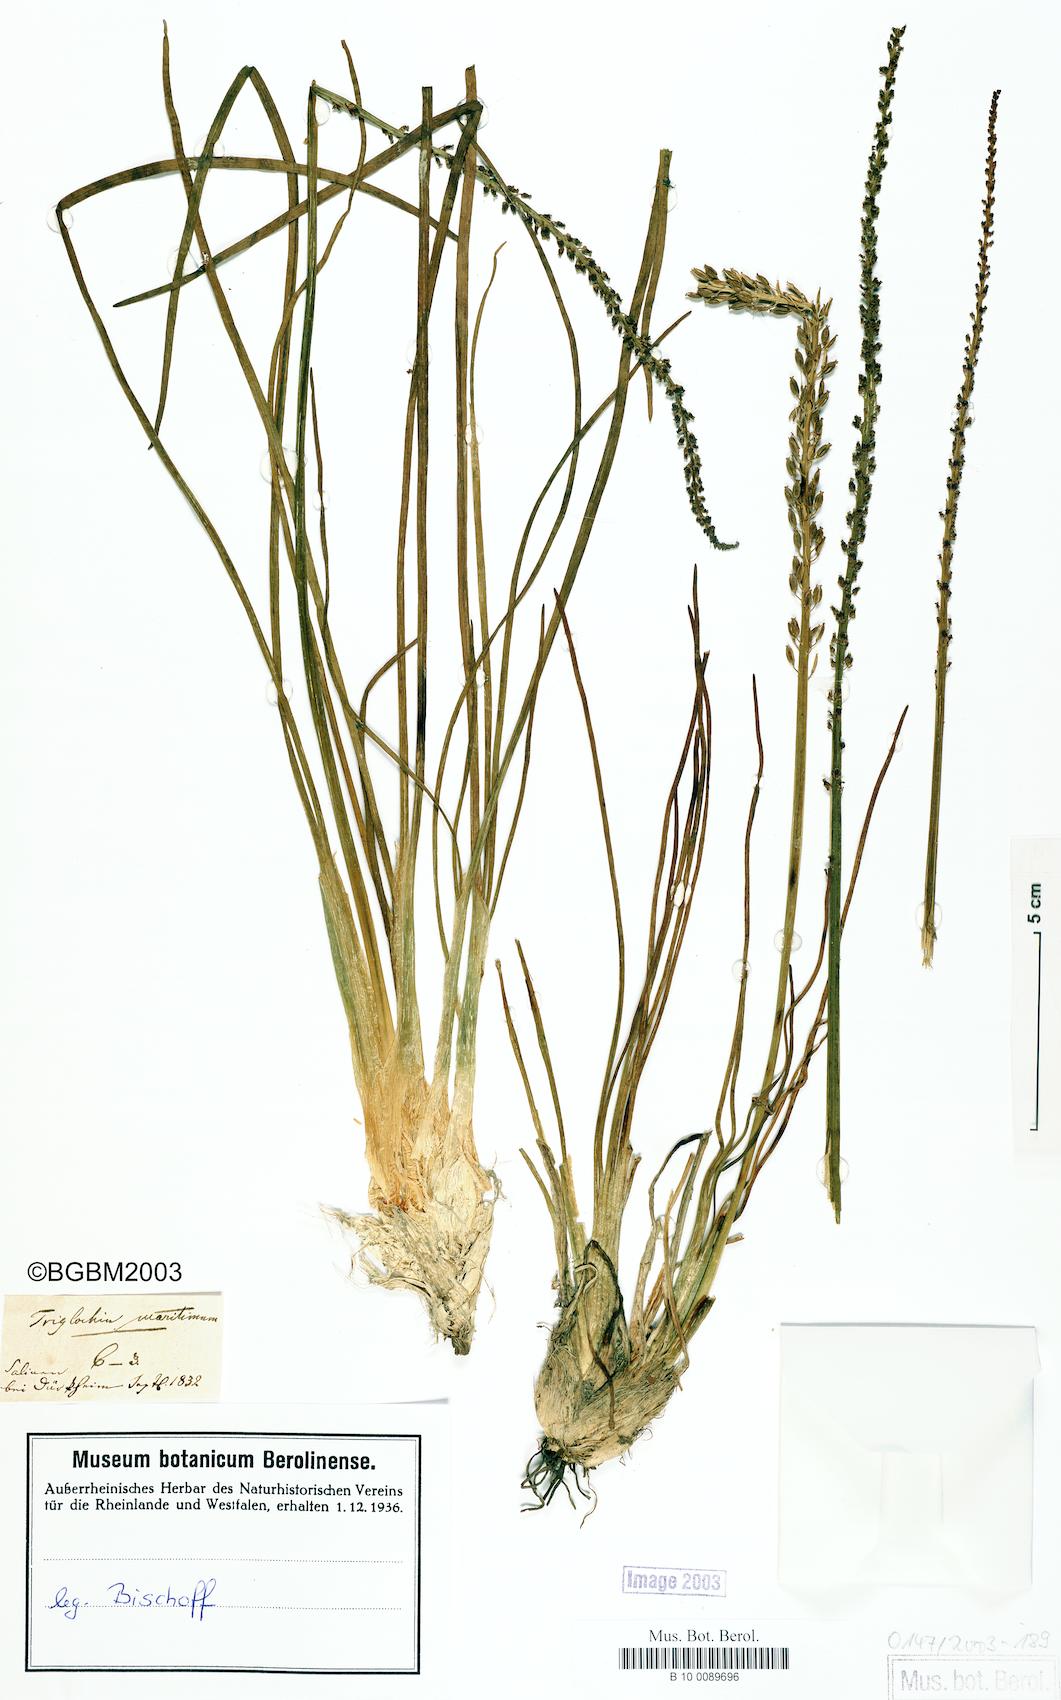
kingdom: Plantae
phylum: Tracheophyta
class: Liliopsida
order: Alismatales
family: Juncaginaceae
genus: Triglochin
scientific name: Triglochin maritima
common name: Sea arrowgrass
